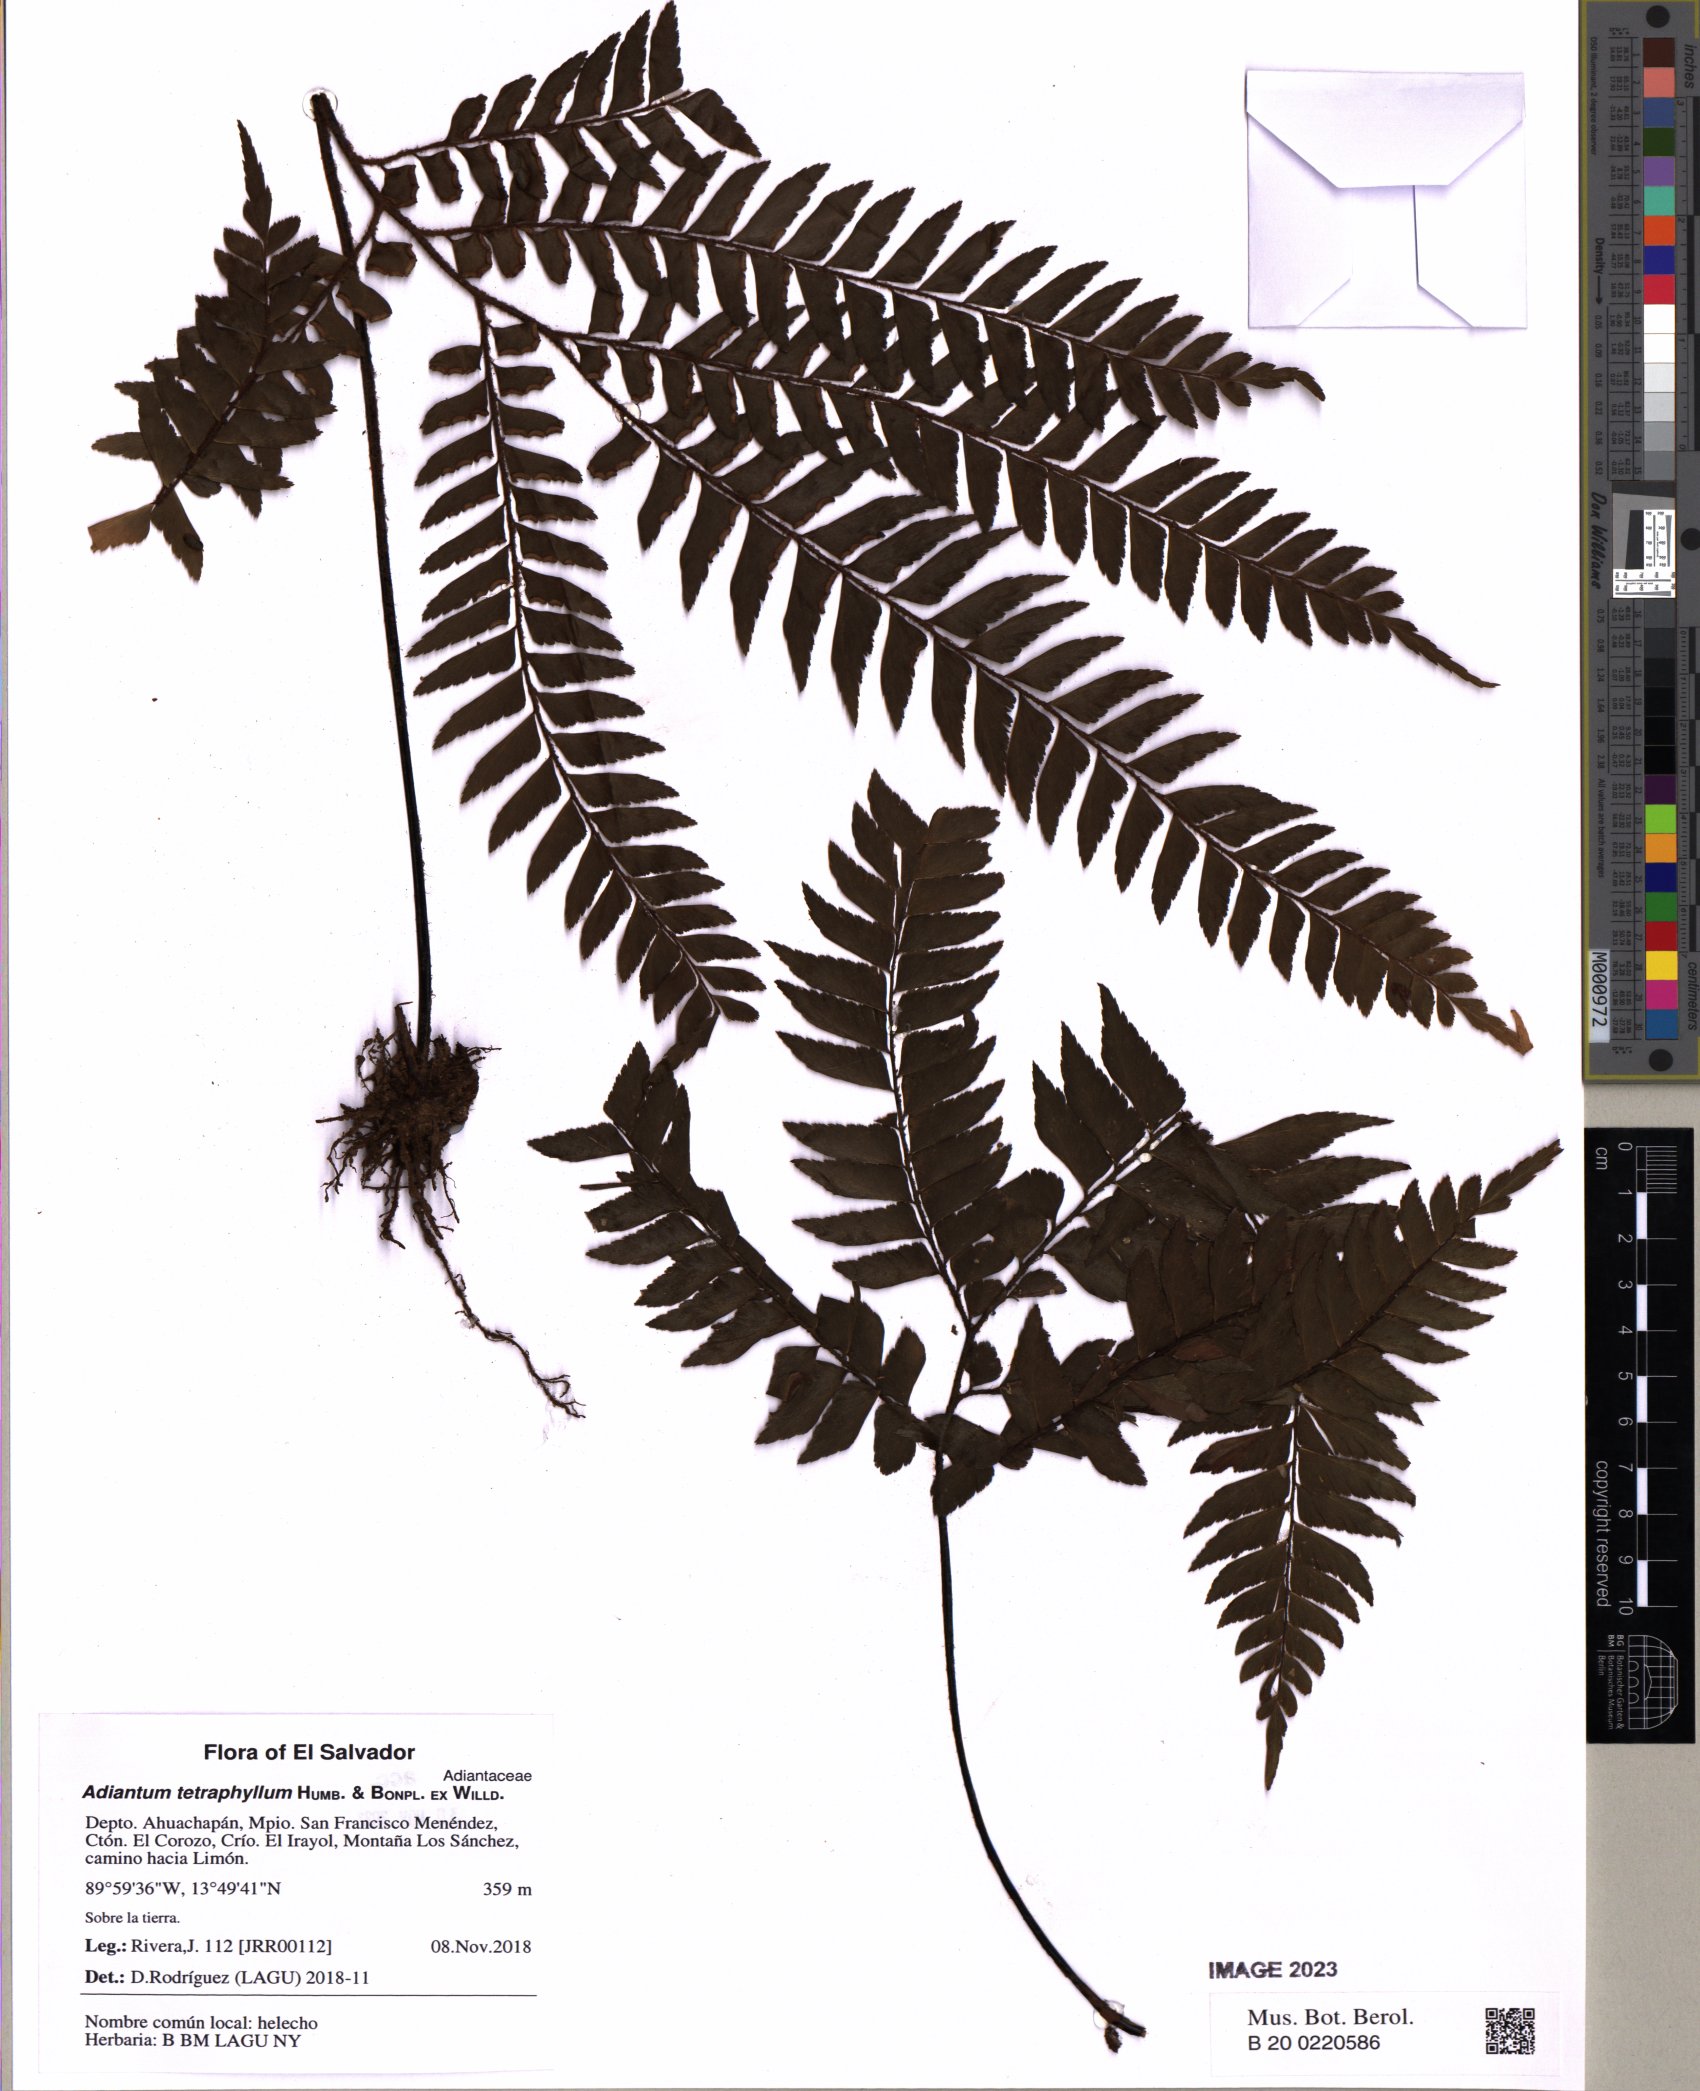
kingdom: Plantae
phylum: Tracheophyta
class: Polypodiopsida
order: Polypodiales
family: Pteridaceae
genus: Adiantum
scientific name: Adiantum tetraphyllum
